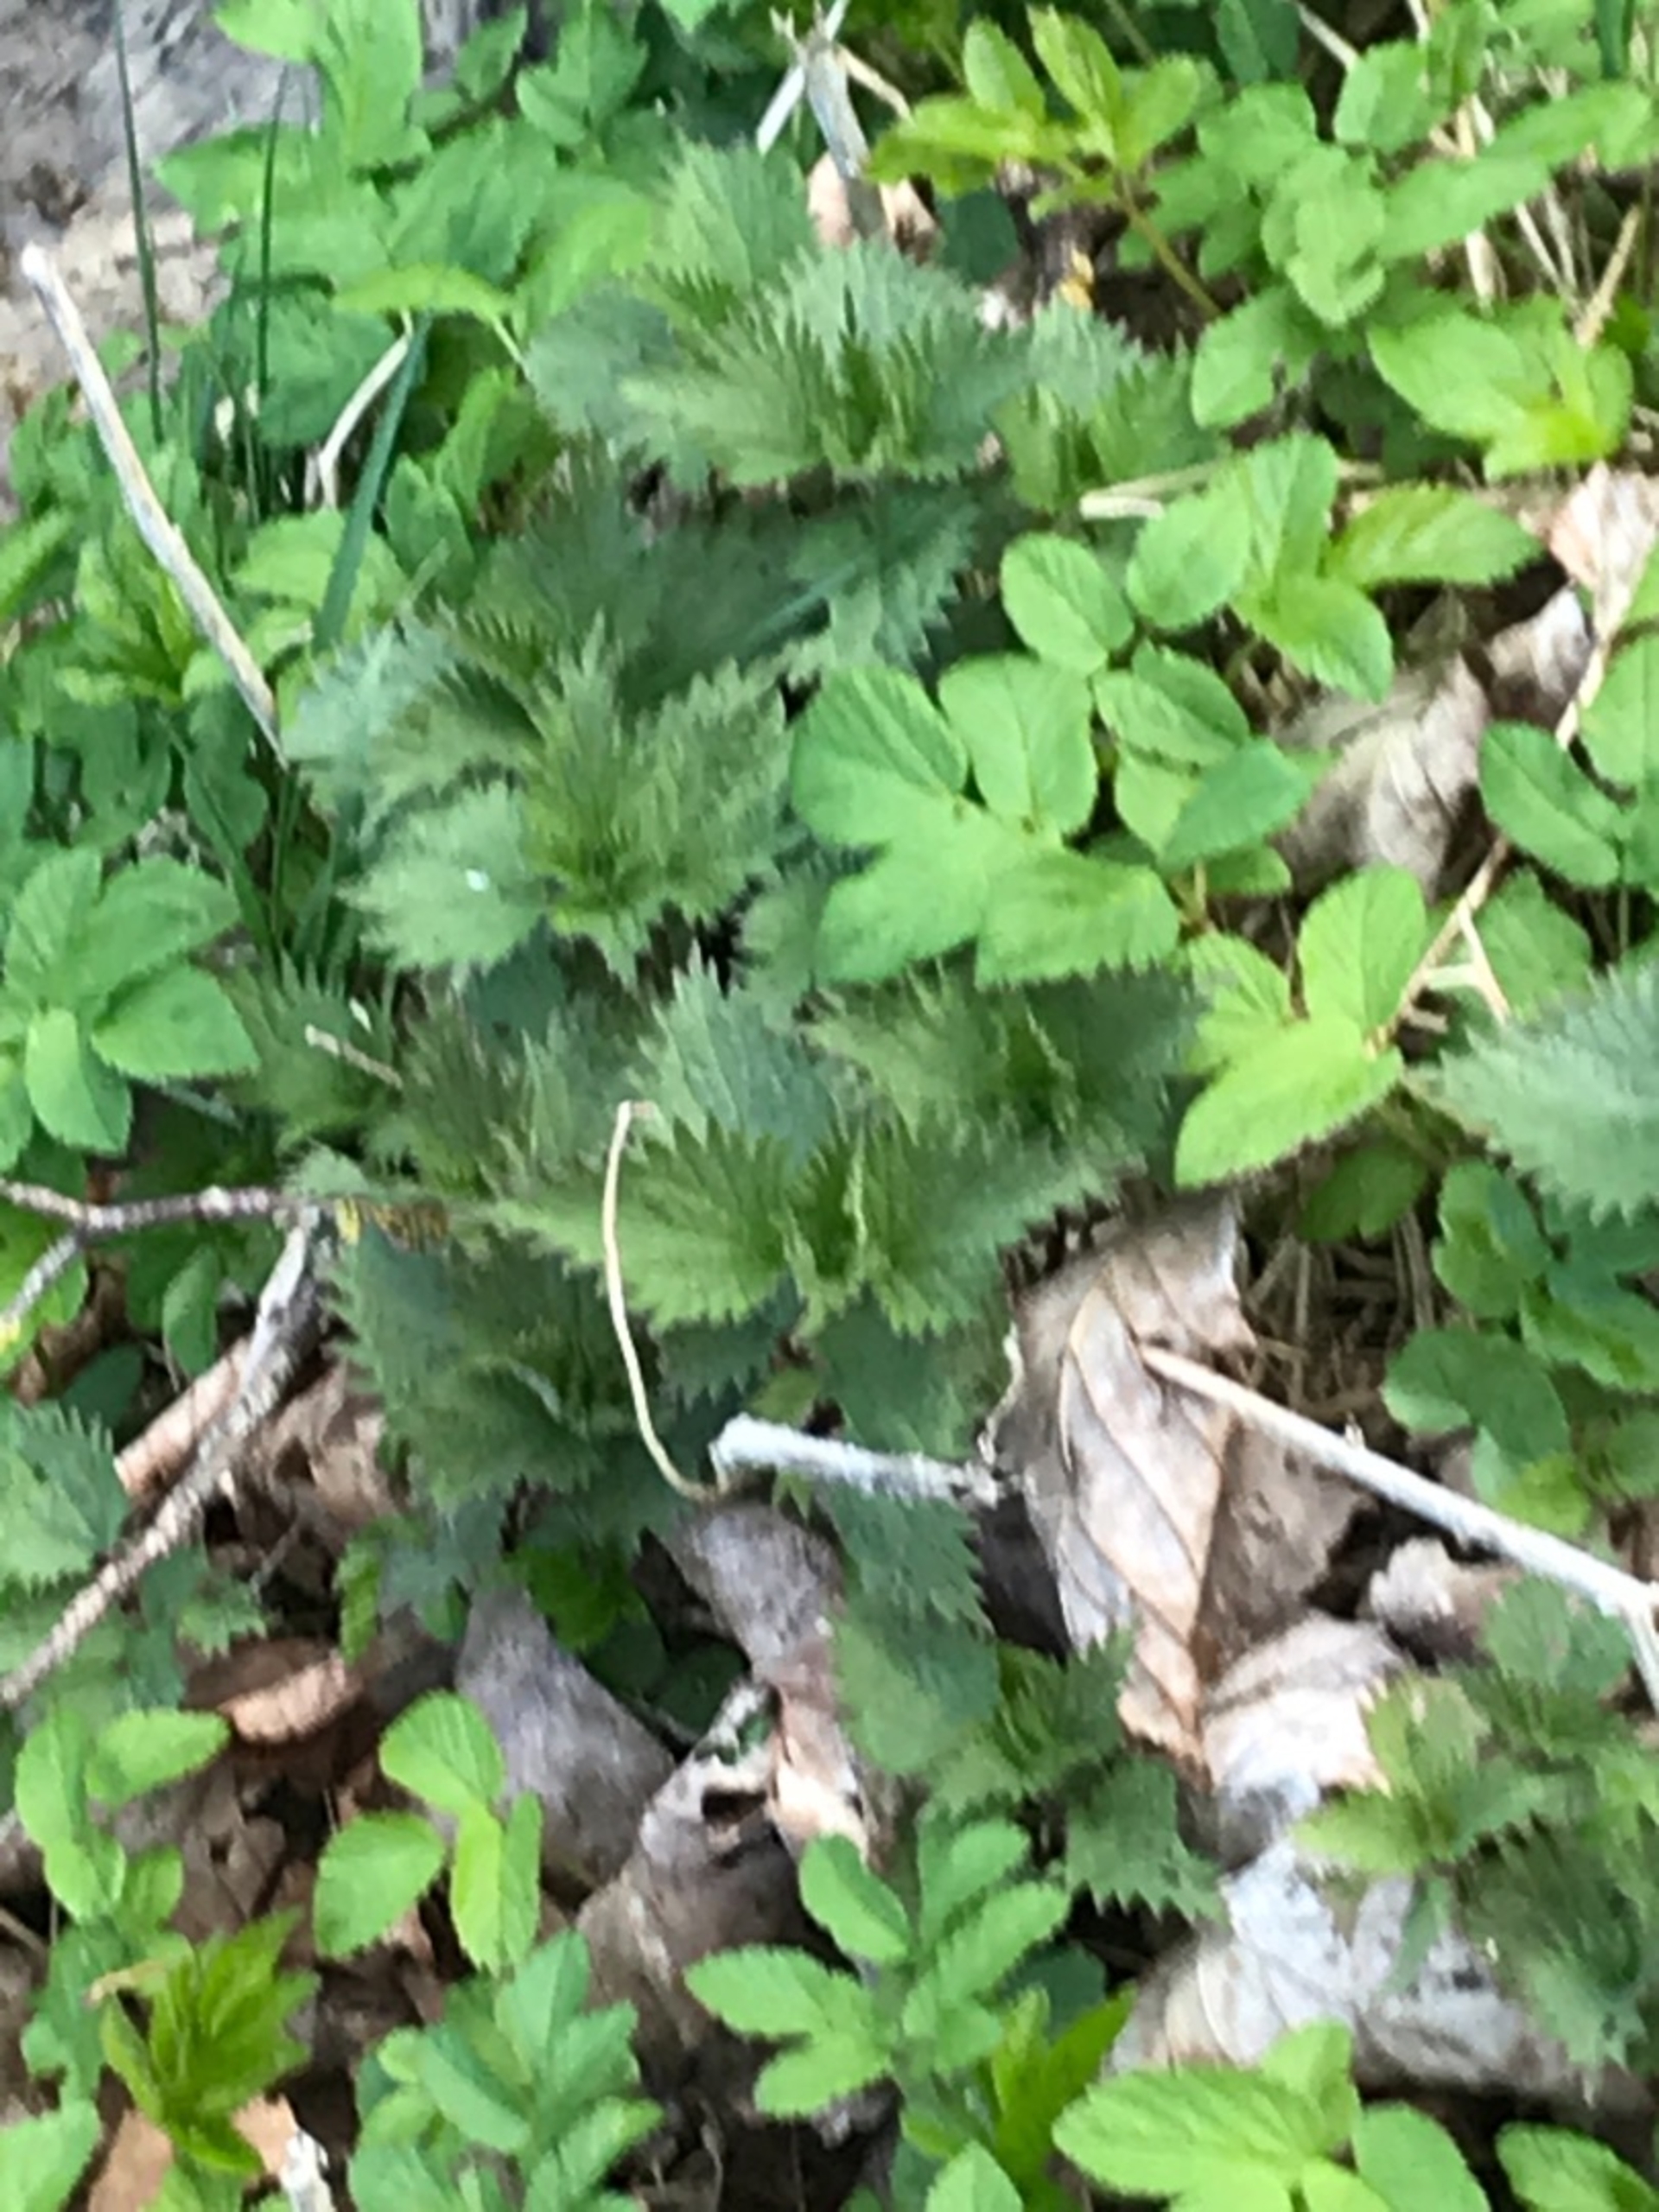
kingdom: Plantae
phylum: Tracheophyta
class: Magnoliopsida
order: Rosales
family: Urticaceae
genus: Urtica
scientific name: Urtica dioica
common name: Stor nælde
